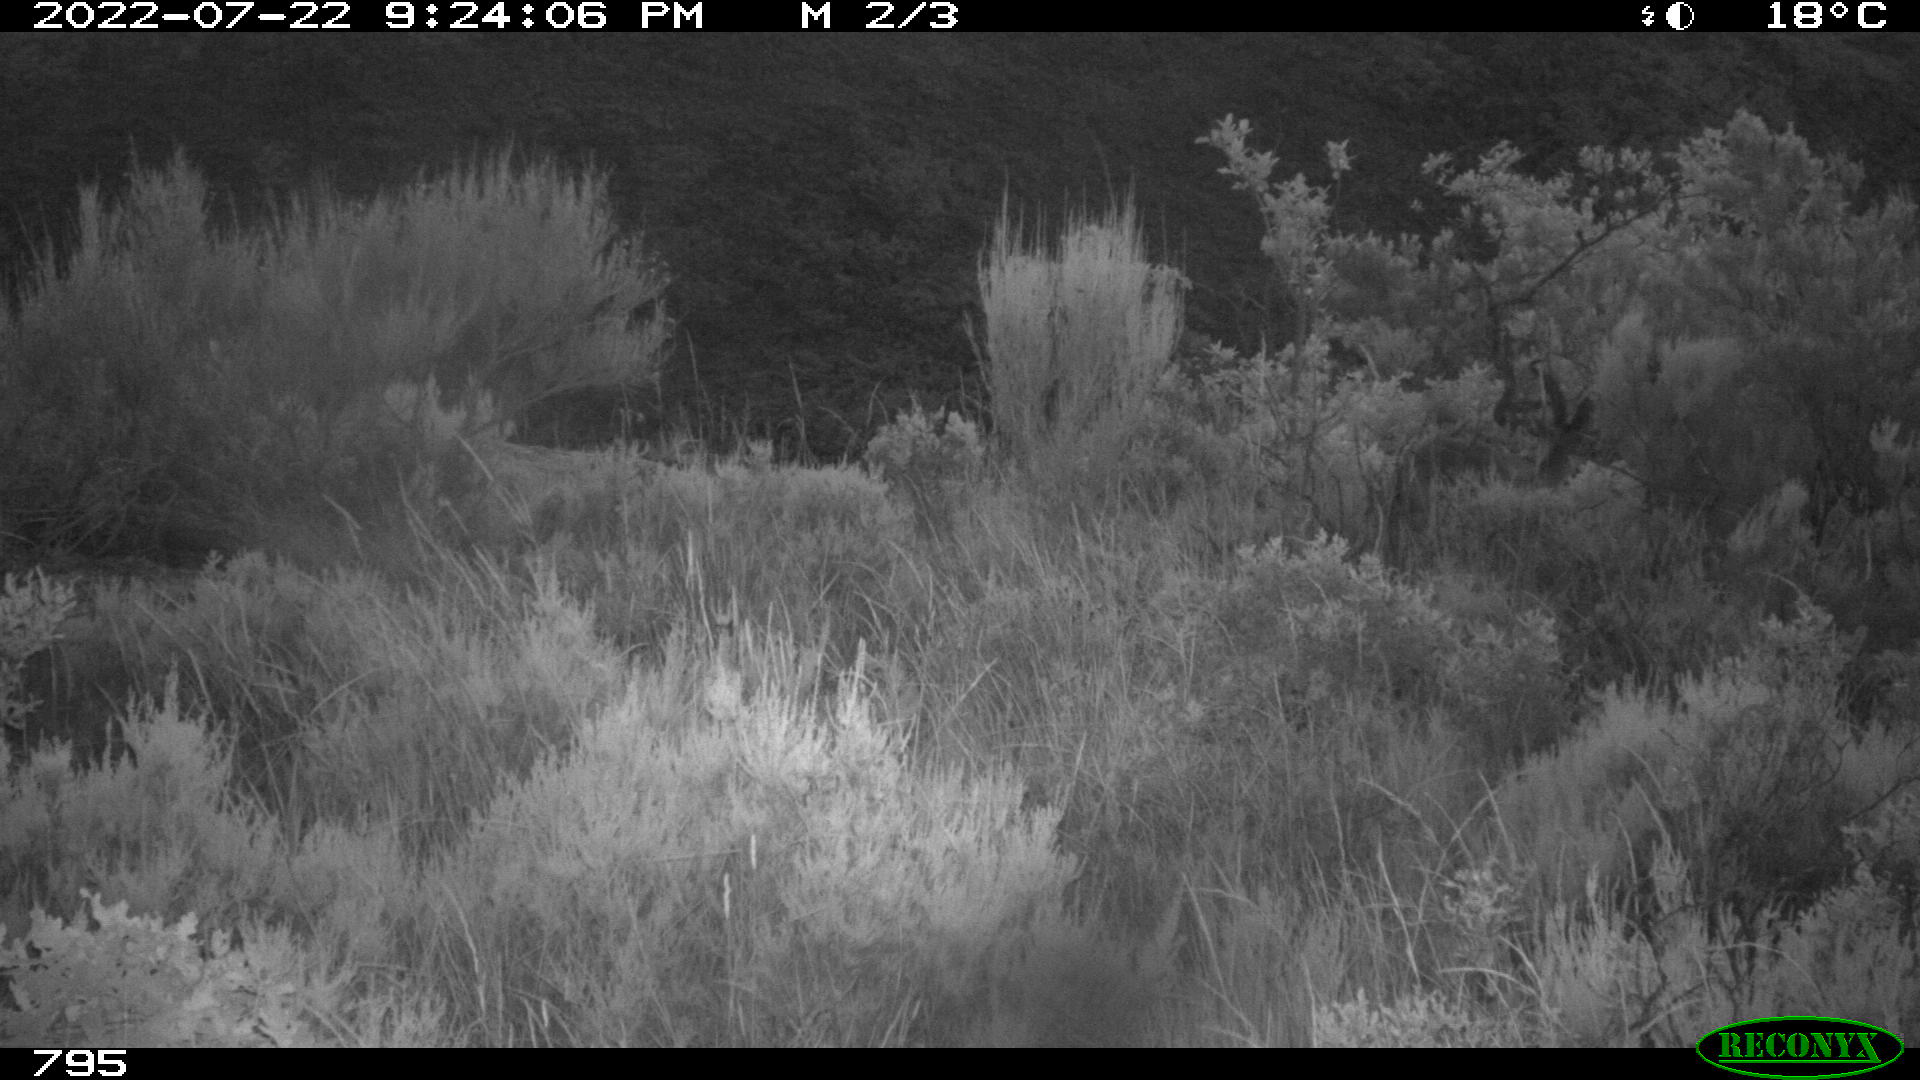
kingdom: Animalia
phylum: Chordata
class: Mammalia
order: Artiodactyla
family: Bovidae
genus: Capra
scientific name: Capra pyrenaica
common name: Spanish ibex
